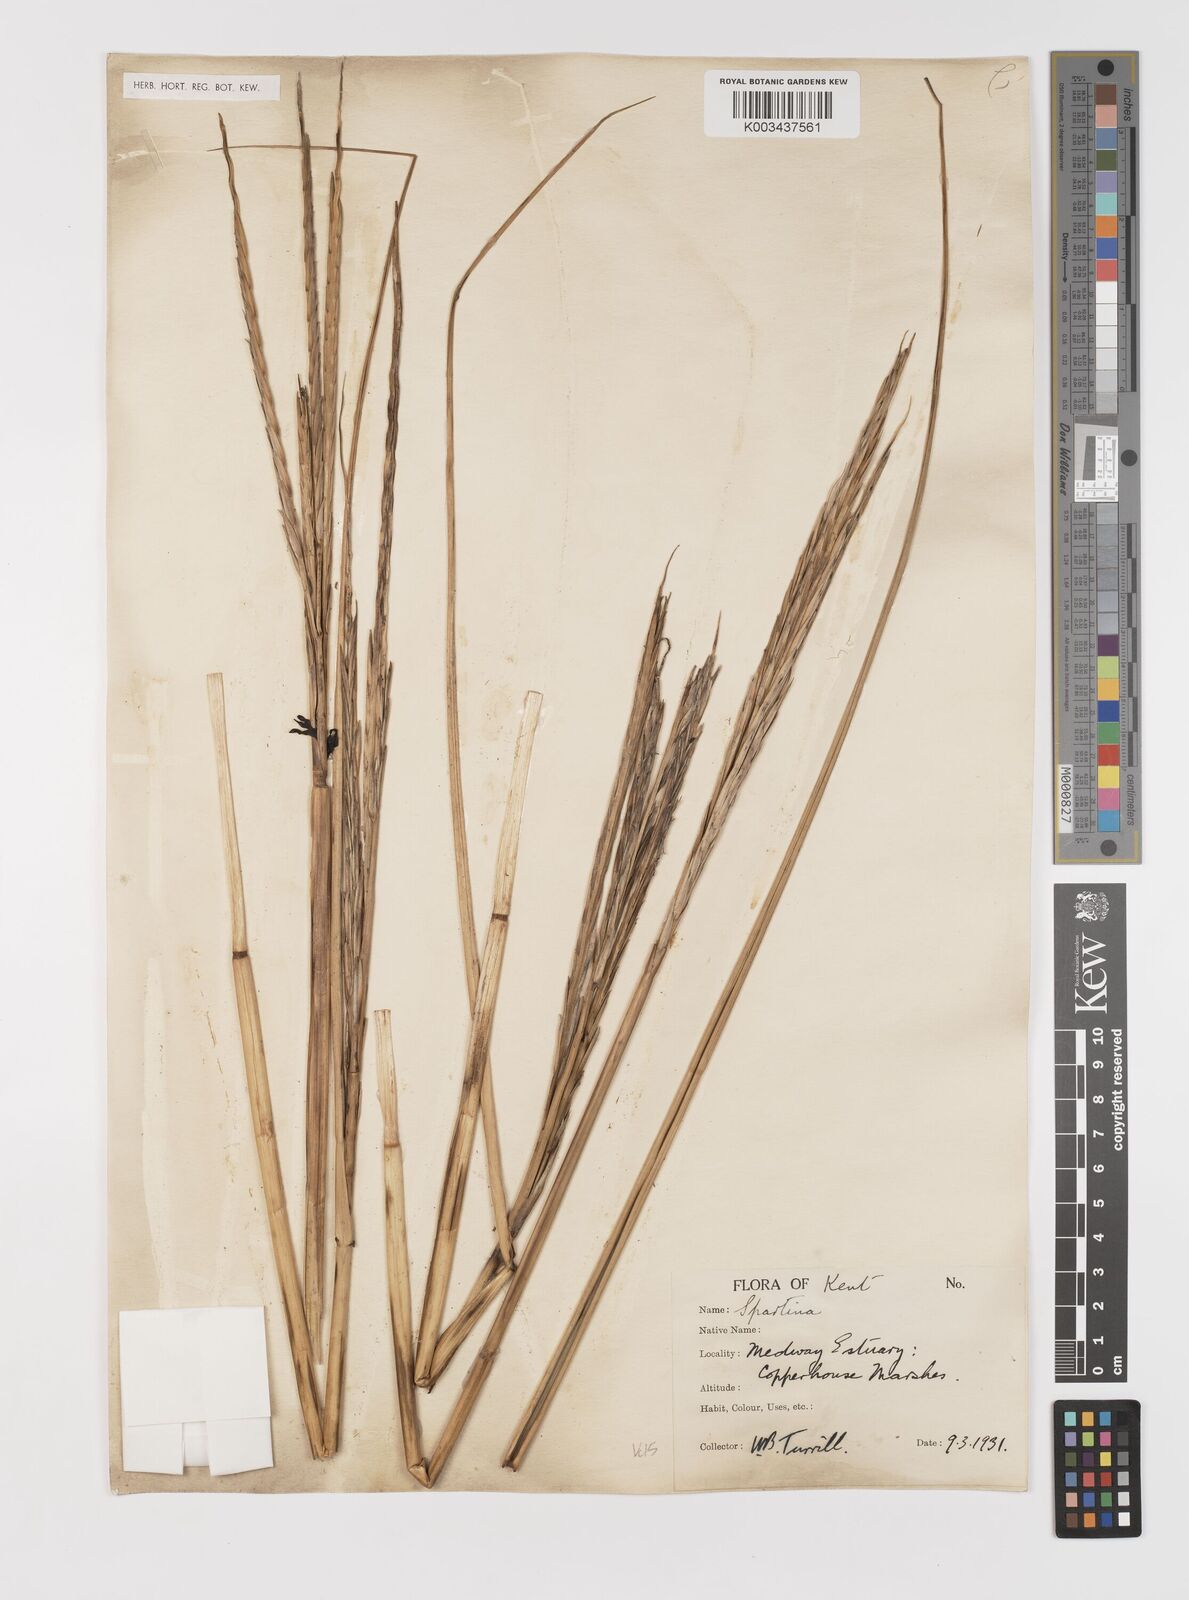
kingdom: Plantae
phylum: Tracheophyta
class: Liliopsida
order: Poales
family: Poaceae
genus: Sporobolus
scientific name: Sporobolus anglicus
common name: English cordgrass
